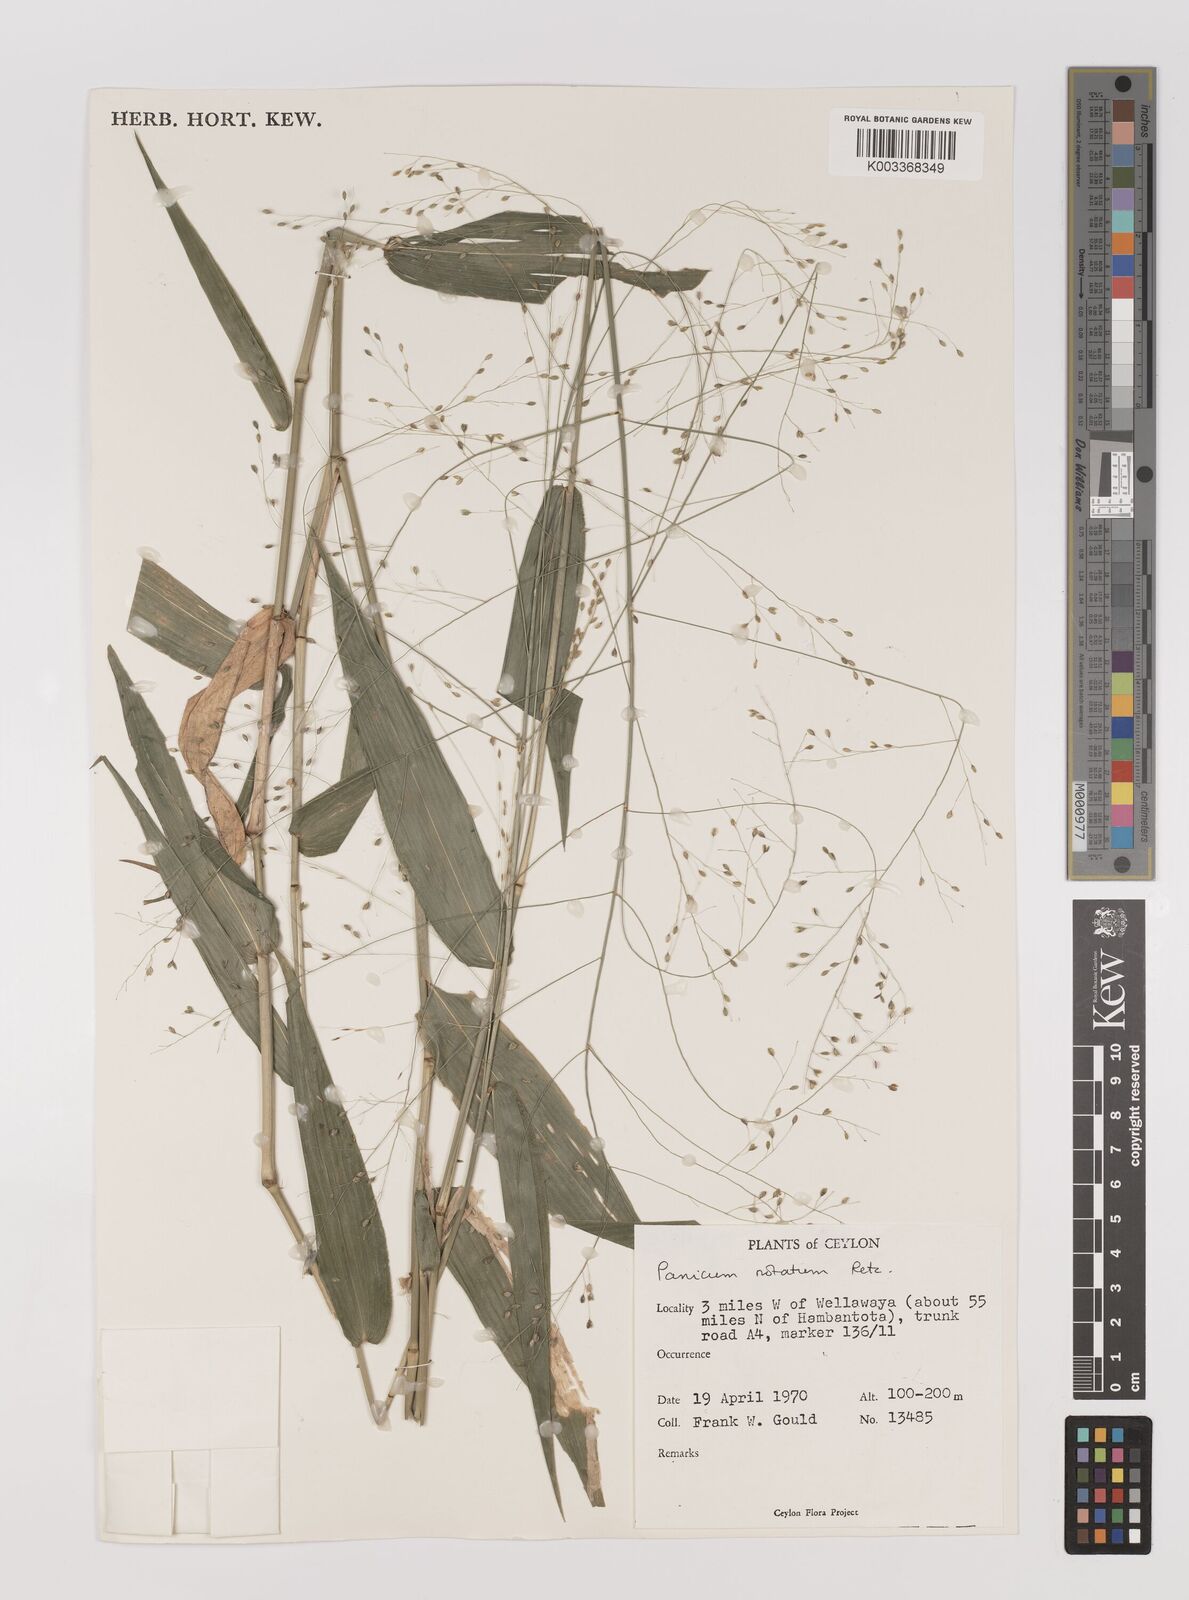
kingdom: Plantae
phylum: Tracheophyta
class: Liliopsida
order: Poales
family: Poaceae
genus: Panicum
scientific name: Panicum notatum
